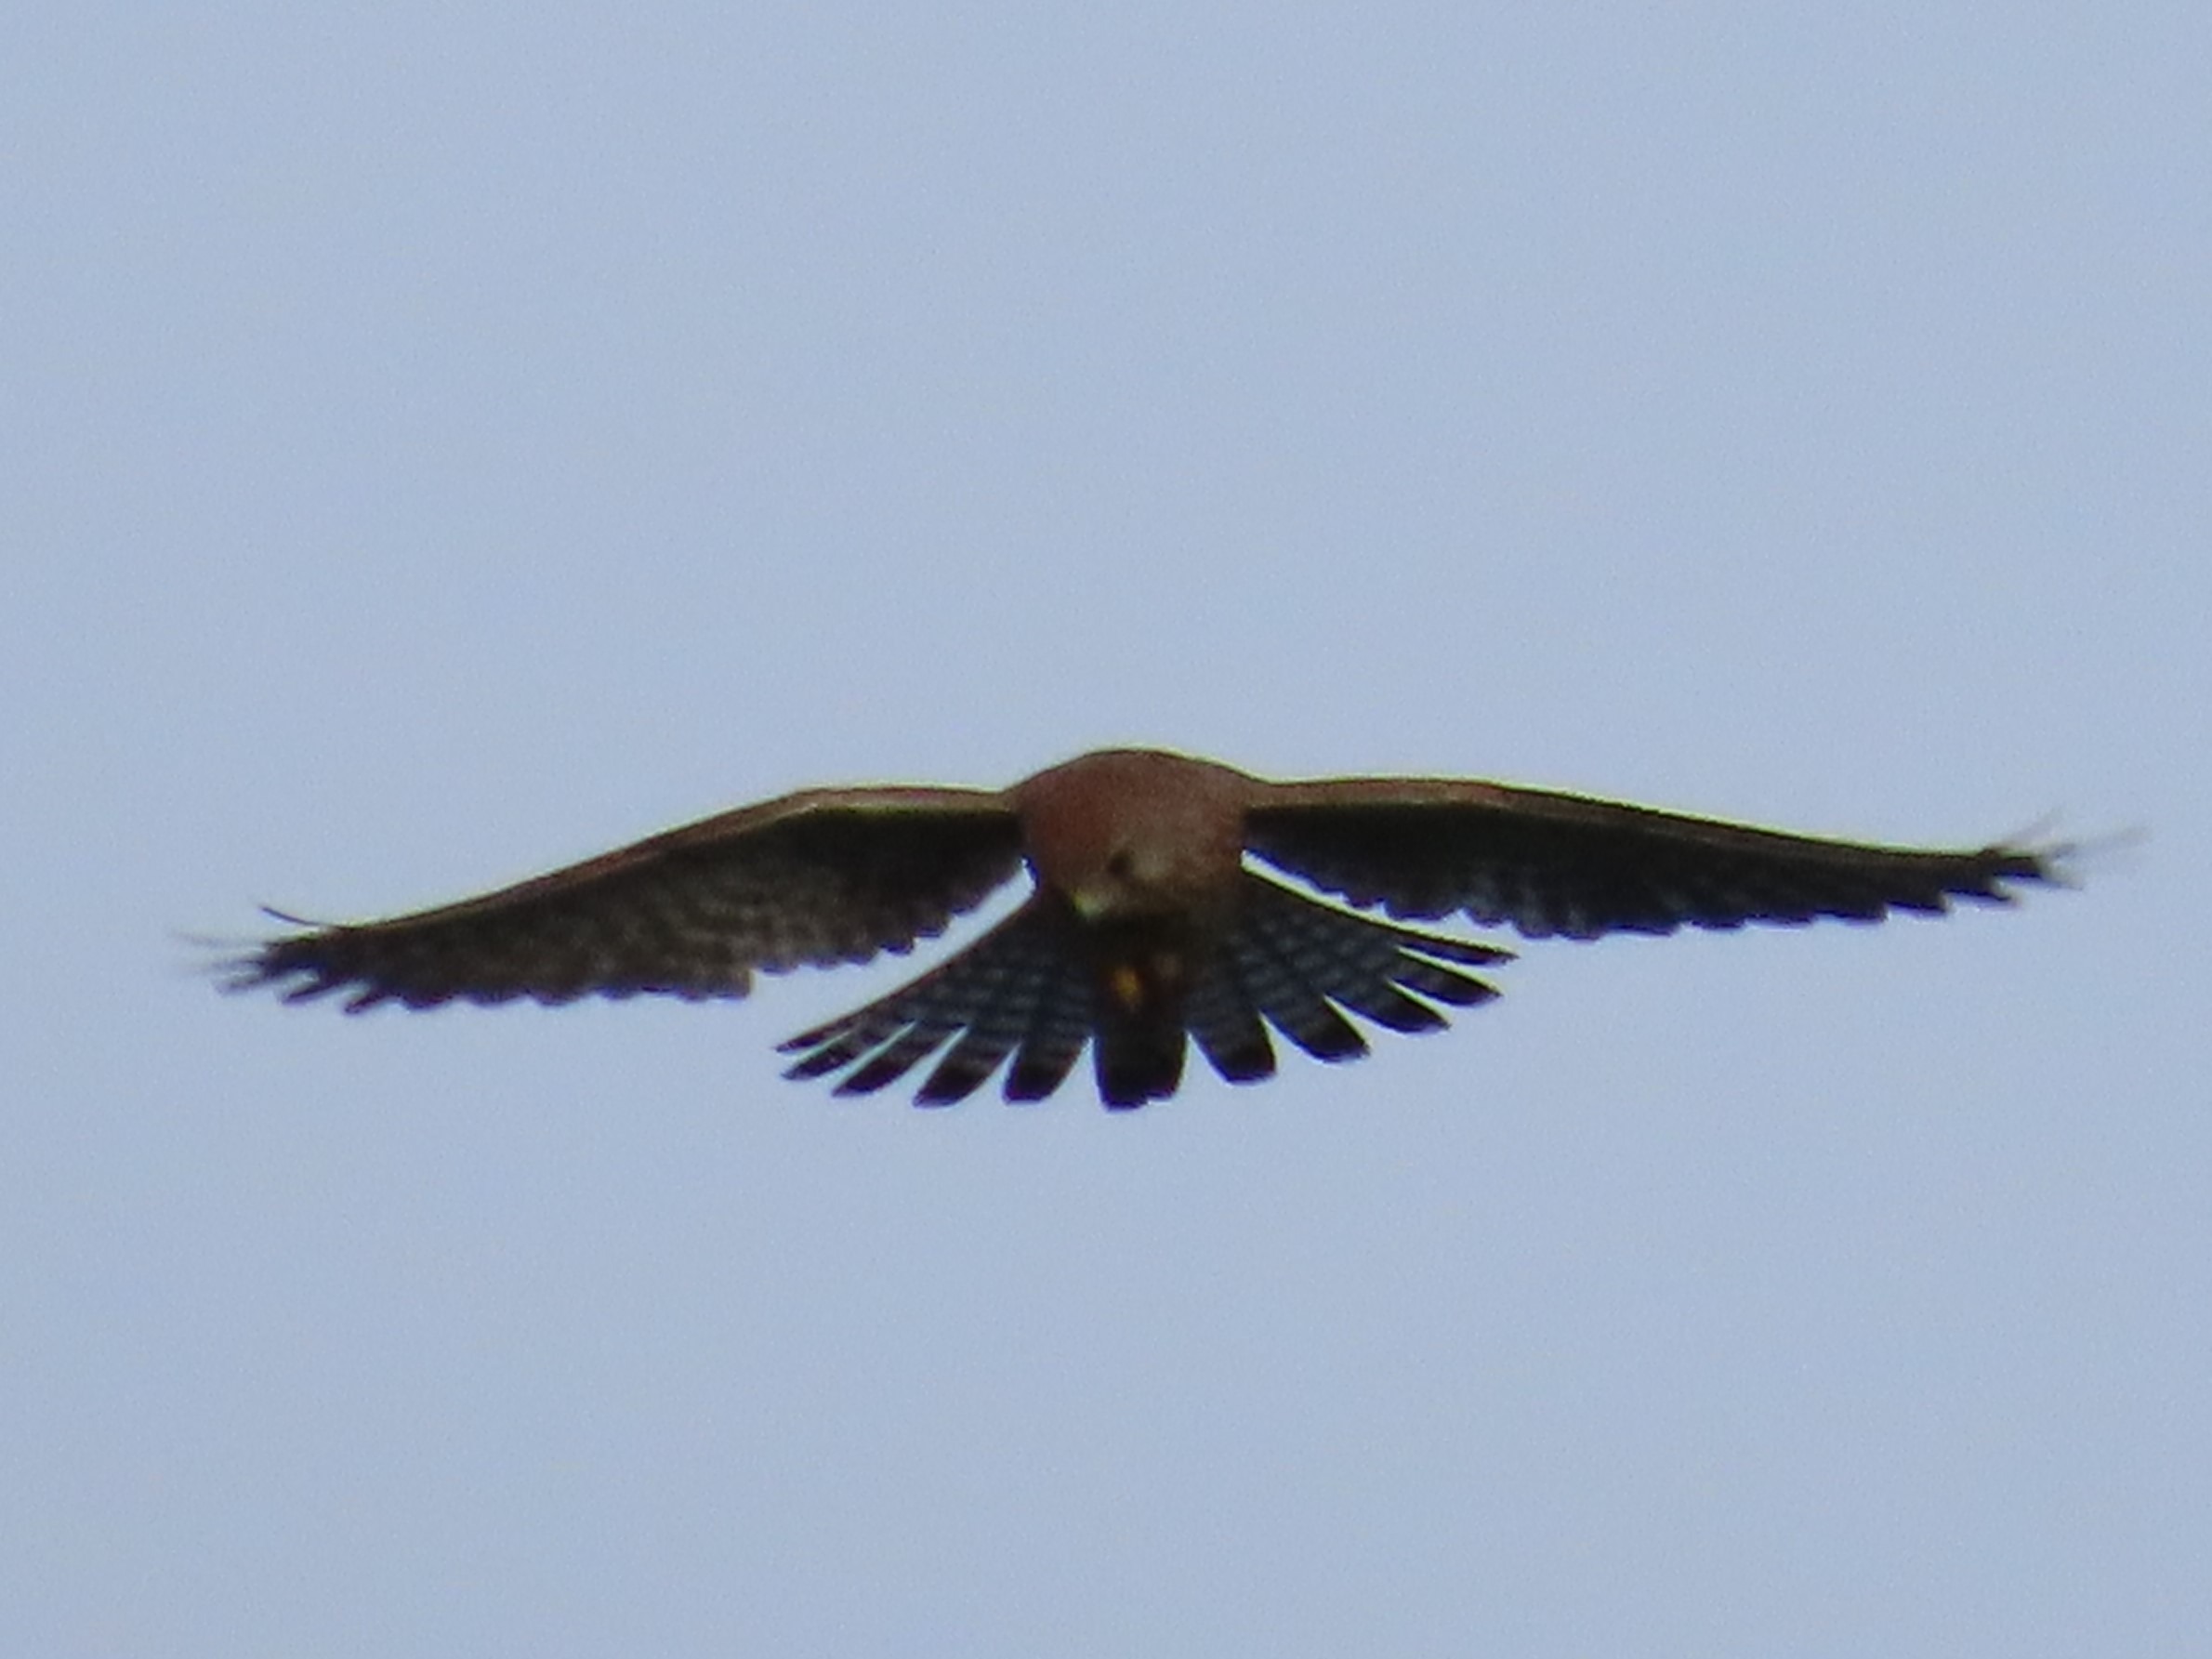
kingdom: Animalia
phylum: Chordata
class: Aves
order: Falconiformes
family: Falconidae
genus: Falco
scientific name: Falco tinnunculus
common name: Tårnfalk
